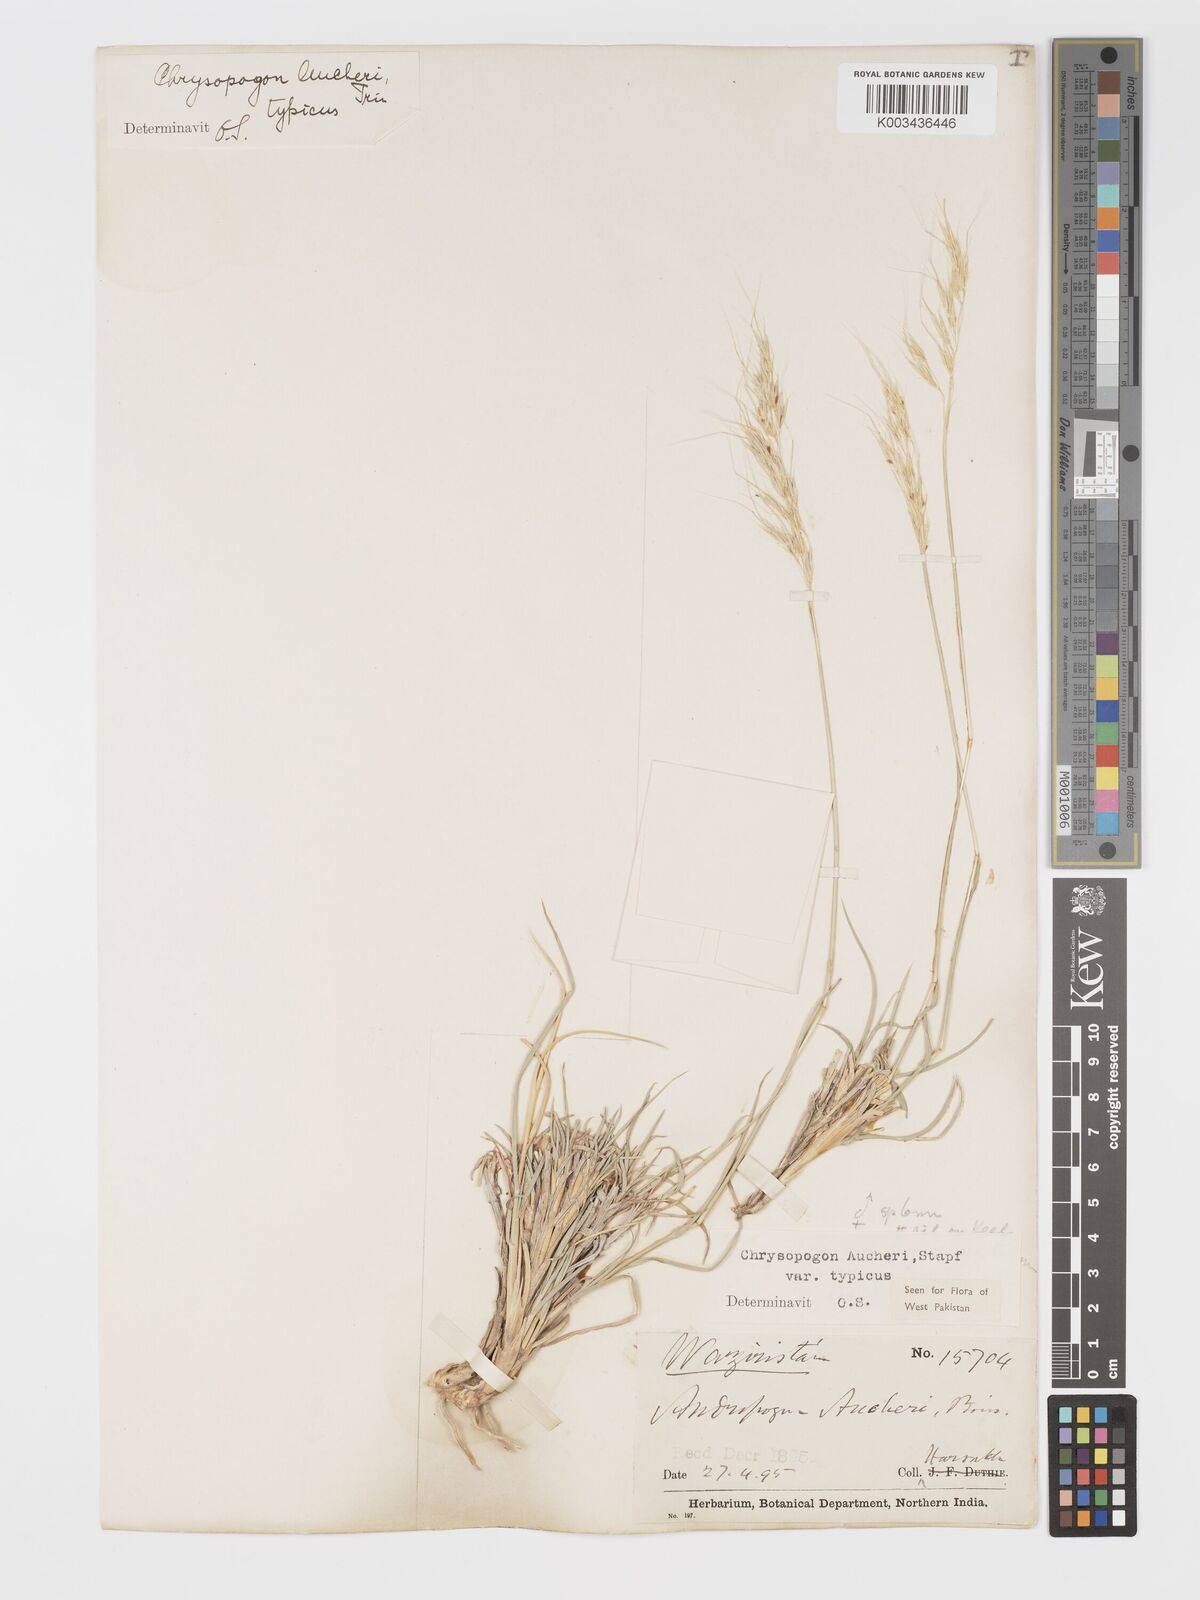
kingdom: Plantae
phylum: Tracheophyta
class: Liliopsida
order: Poales
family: Poaceae
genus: Chrysopogon
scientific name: Chrysopogon aucheri
